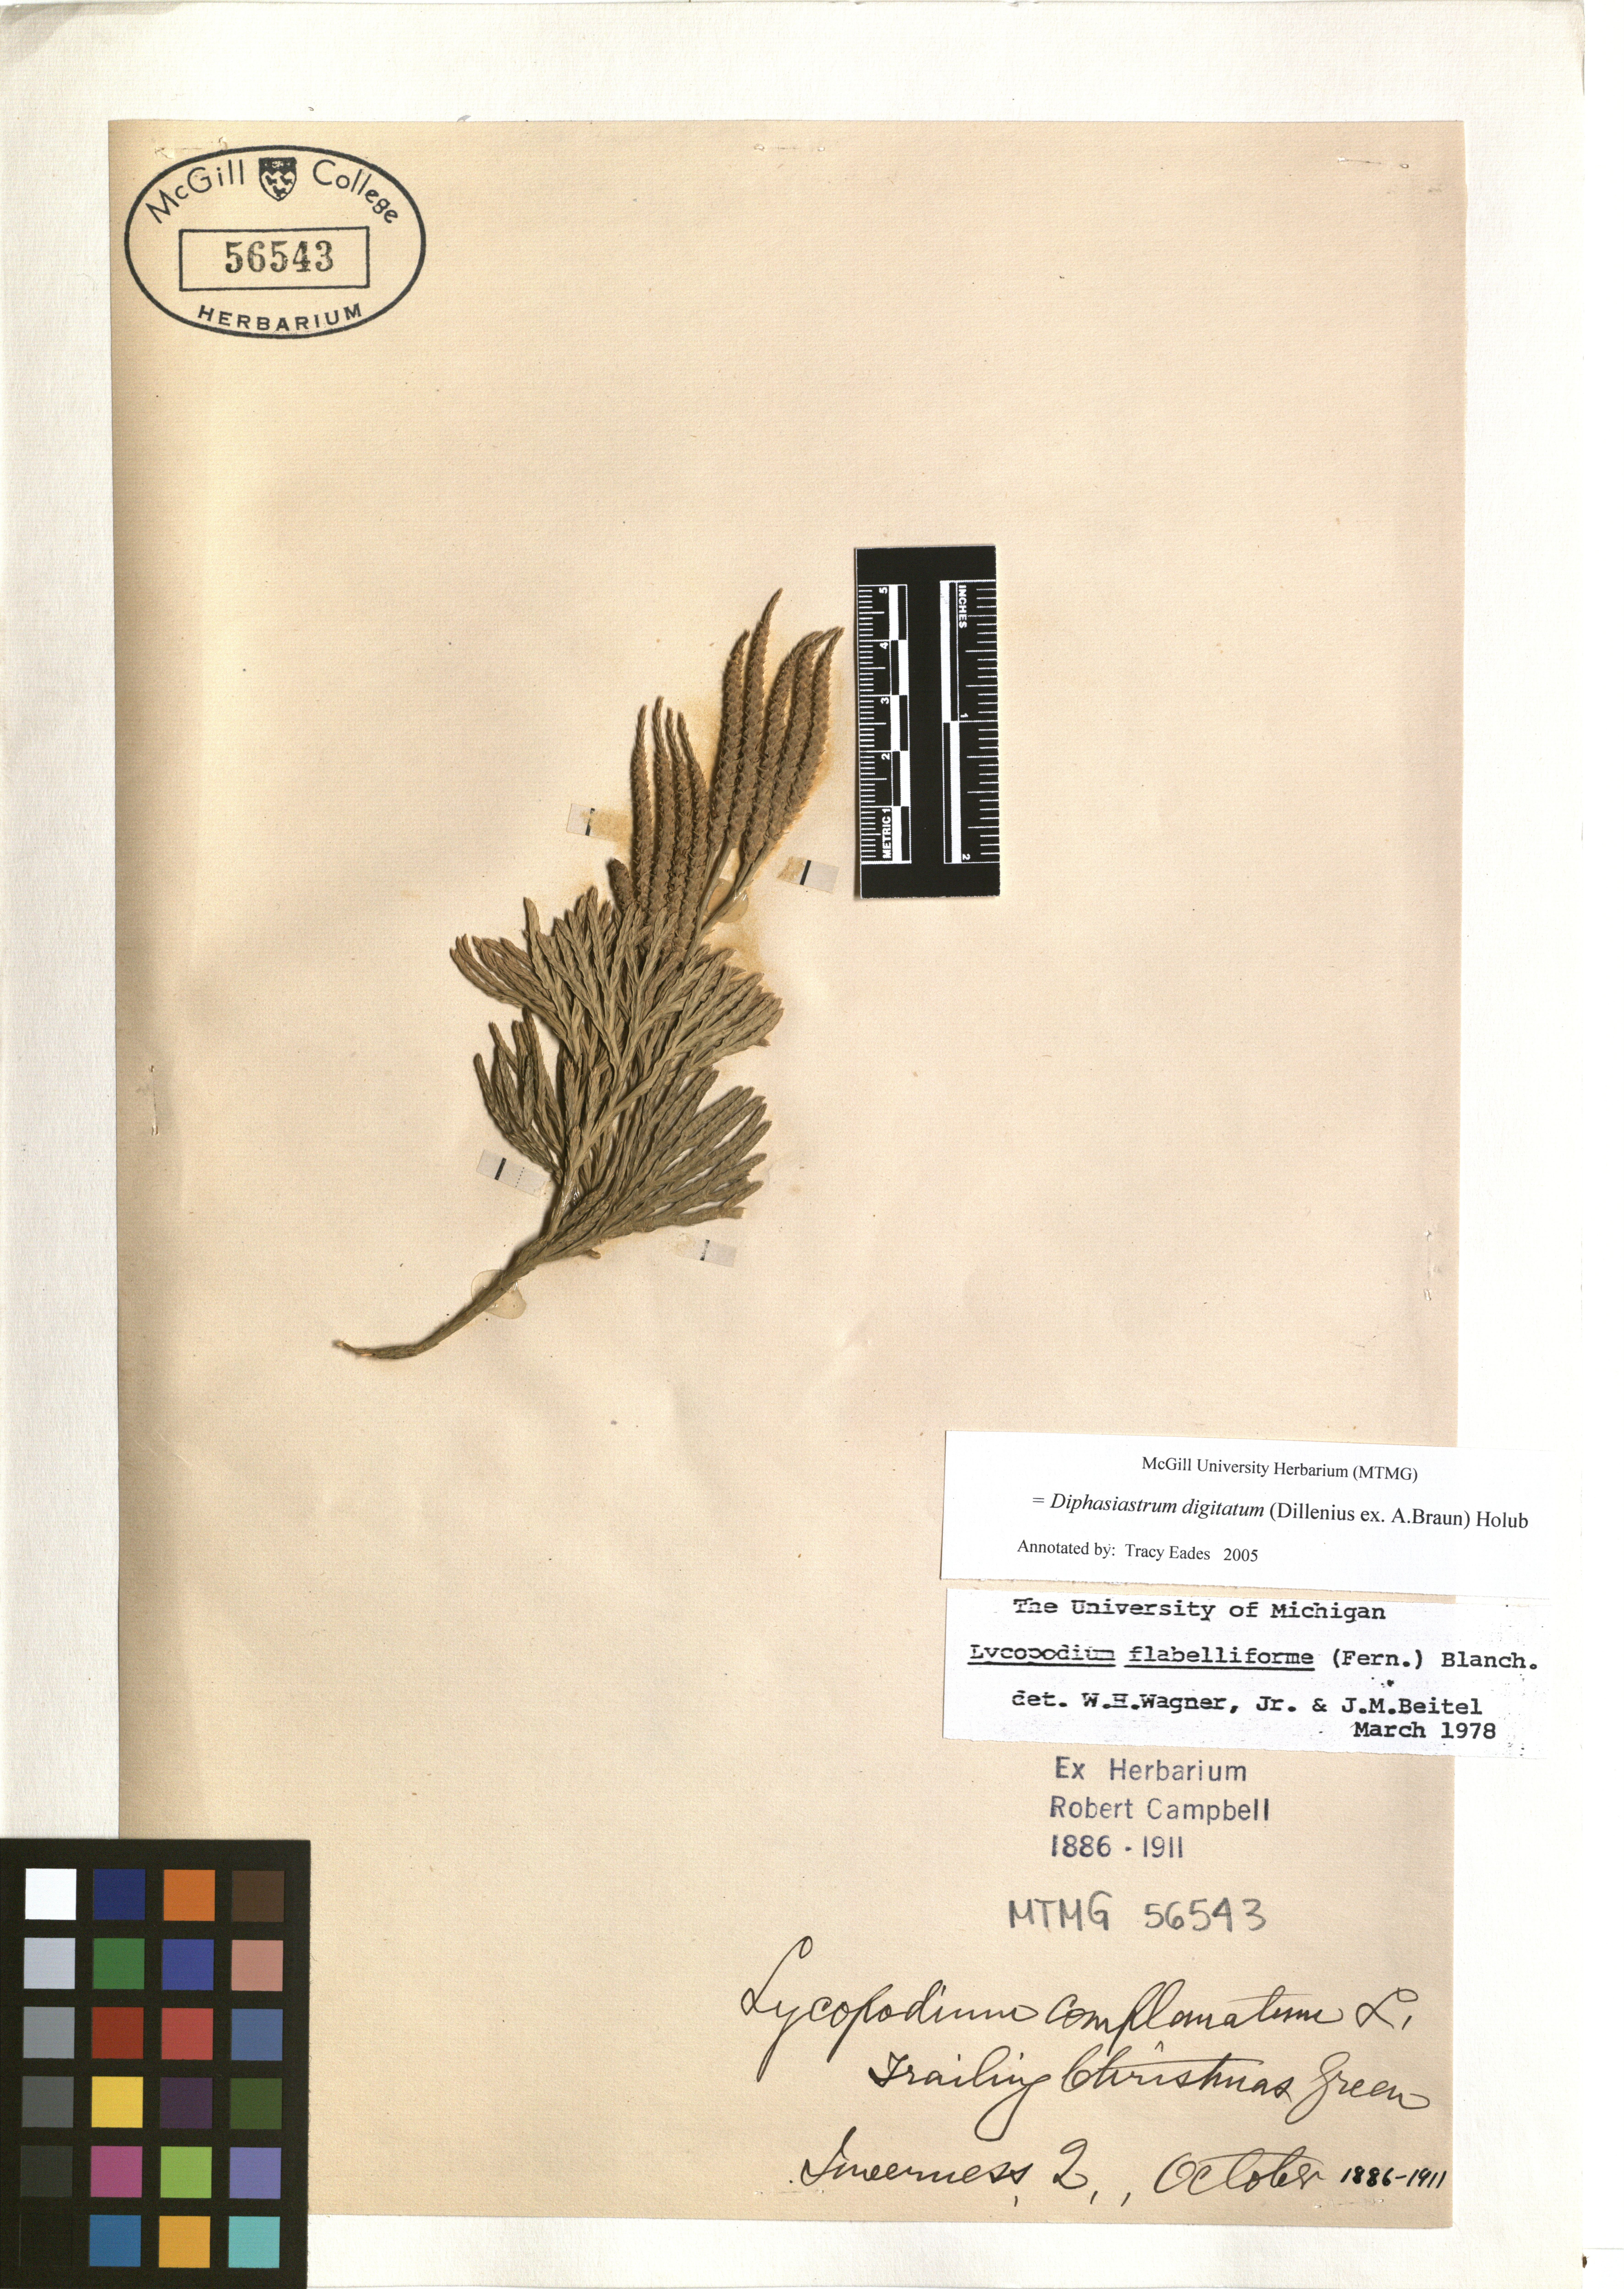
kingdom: Plantae
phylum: Tracheophyta
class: Lycopodiopsida
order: Lycopodiales
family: Lycopodiaceae
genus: Diphasiastrum
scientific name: Diphasiastrum digitatum
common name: Southern running-pine
